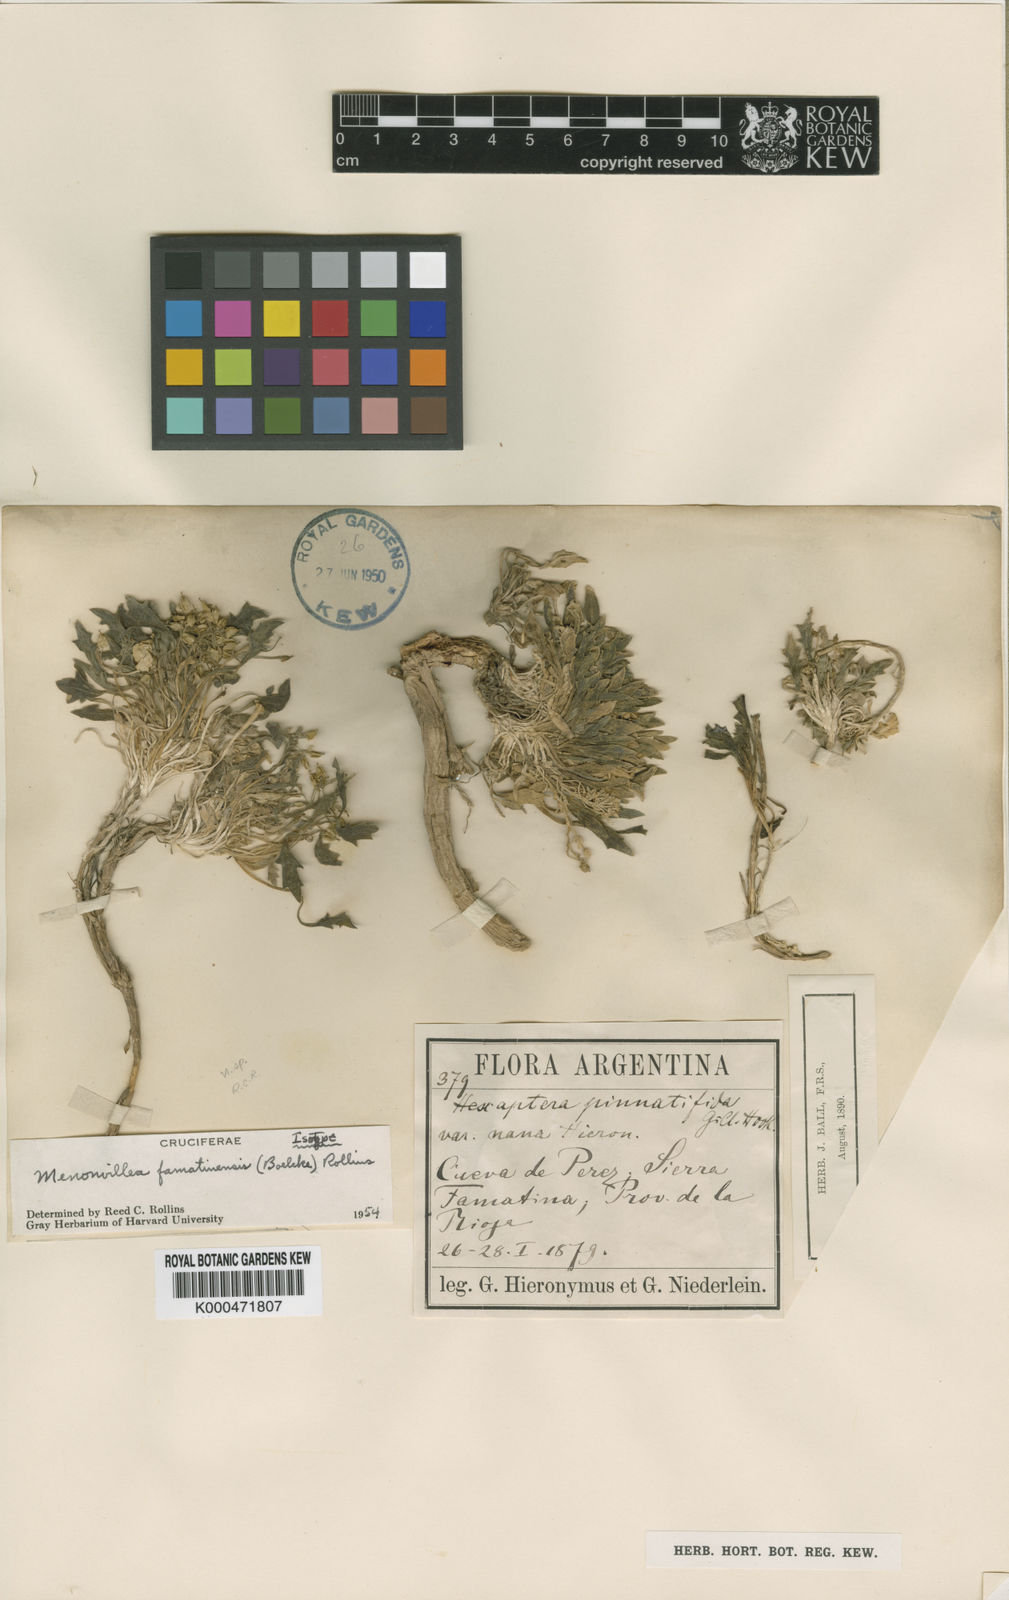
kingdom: Plantae
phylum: Tracheophyta
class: Magnoliopsida
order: Brassicales
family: Brassicaceae
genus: Menonvillea
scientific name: Menonvillea famatinensis
